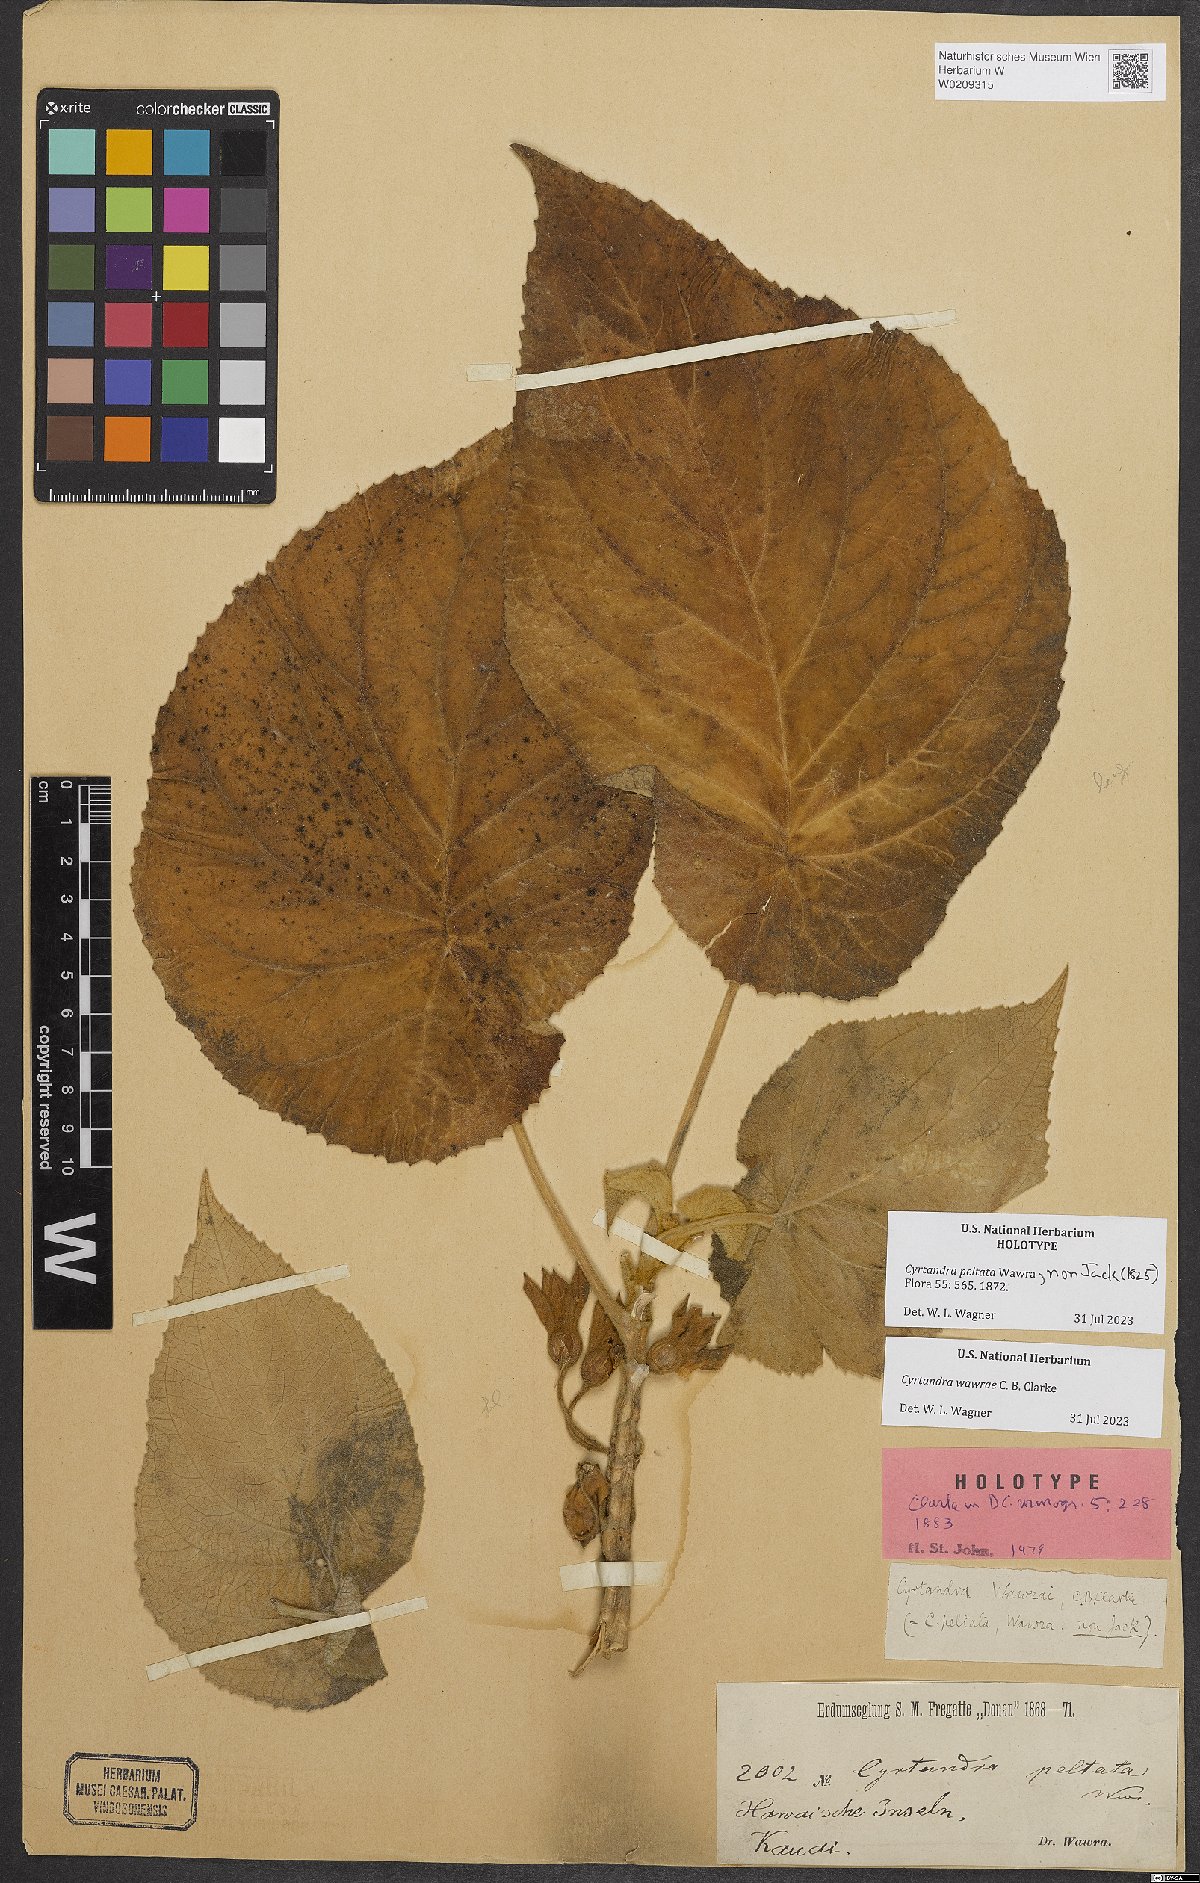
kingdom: Plantae
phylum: Tracheophyta
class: Magnoliopsida
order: Lamiales
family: Gesneriaceae
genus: Cyrtandra
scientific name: Cyrtandra wawrae
